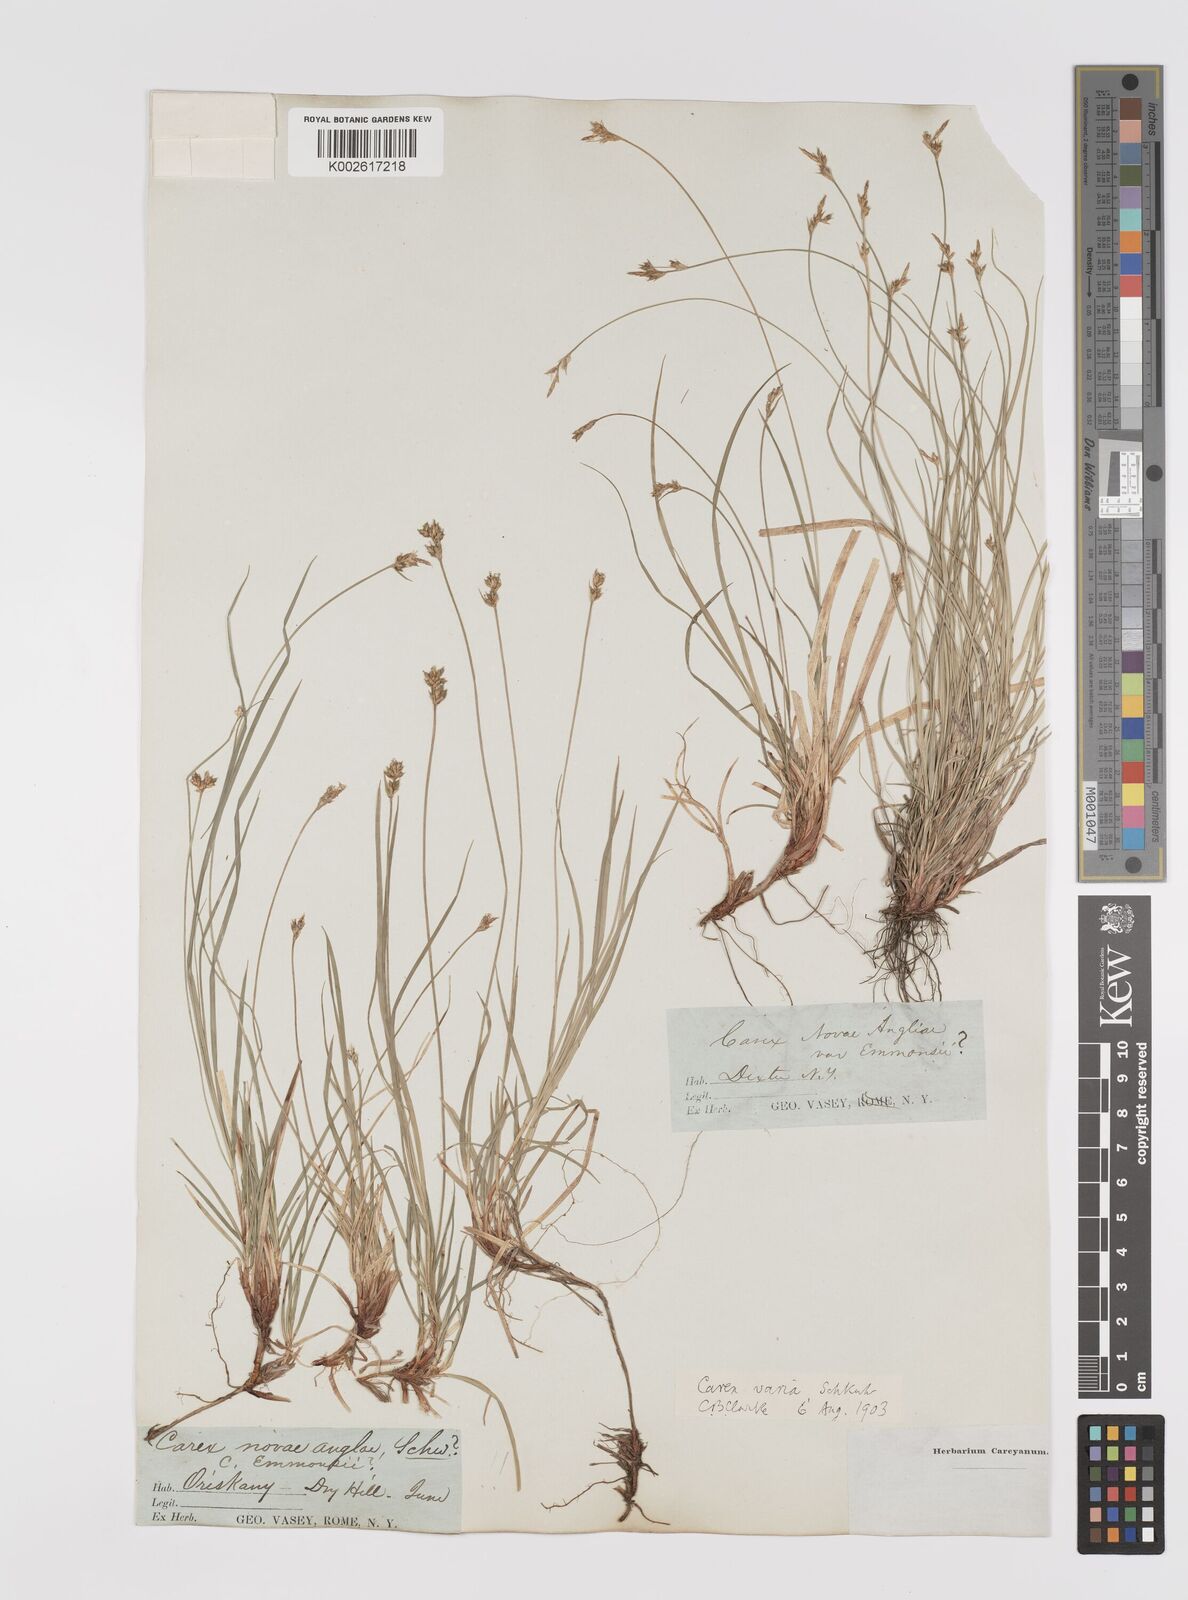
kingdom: Plantae
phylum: Tracheophyta
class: Liliopsida
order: Poales
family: Cyperaceae
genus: Carex
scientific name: Carex albicans
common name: Bellow-beaked sedge
